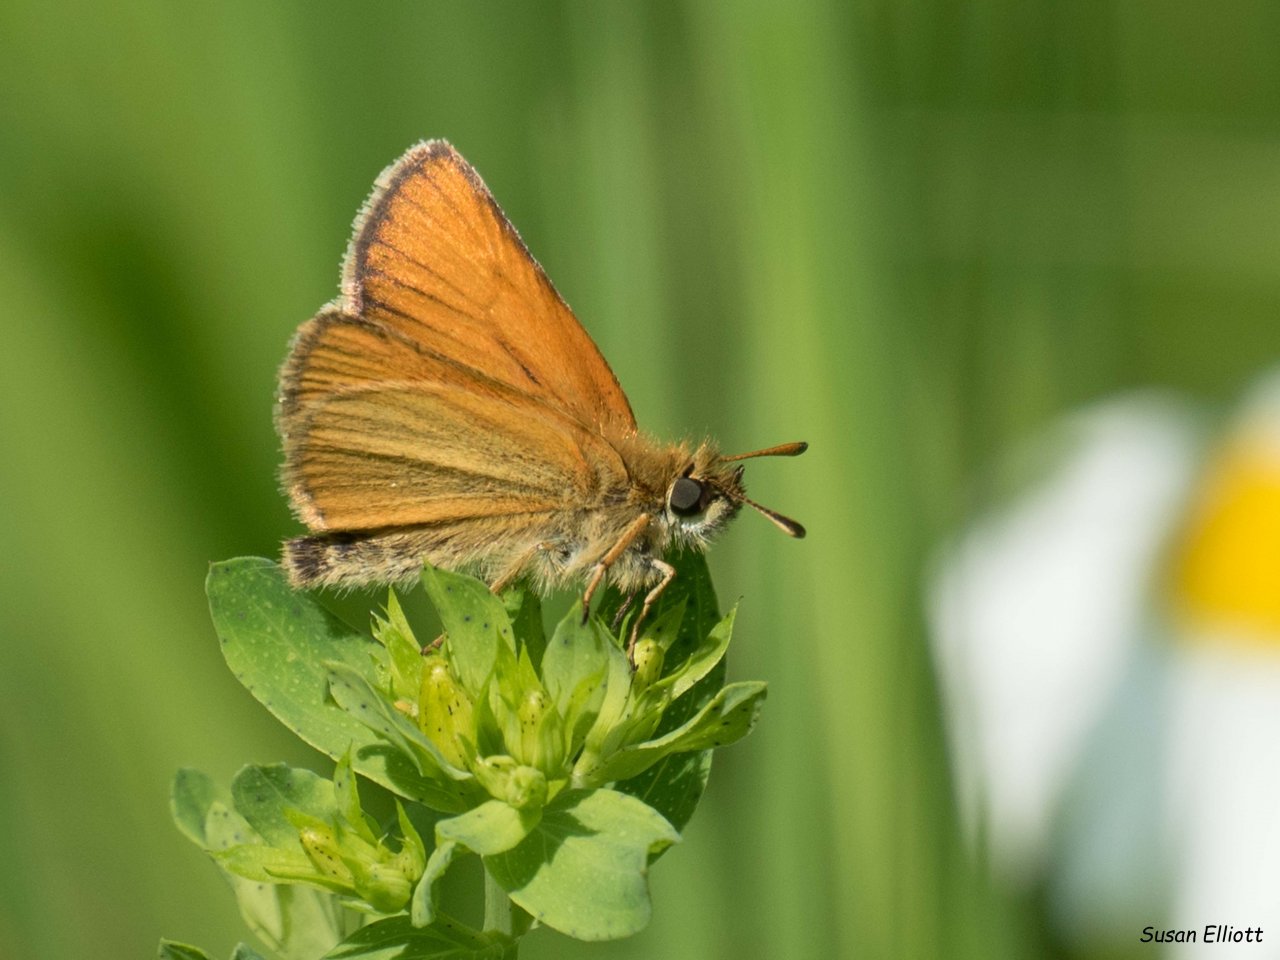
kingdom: Animalia
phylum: Arthropoda
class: Insecta
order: Lepidoptera
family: Hesperiidae
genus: Thymelicus
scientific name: Thymelicus lineola
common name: European Skipper
